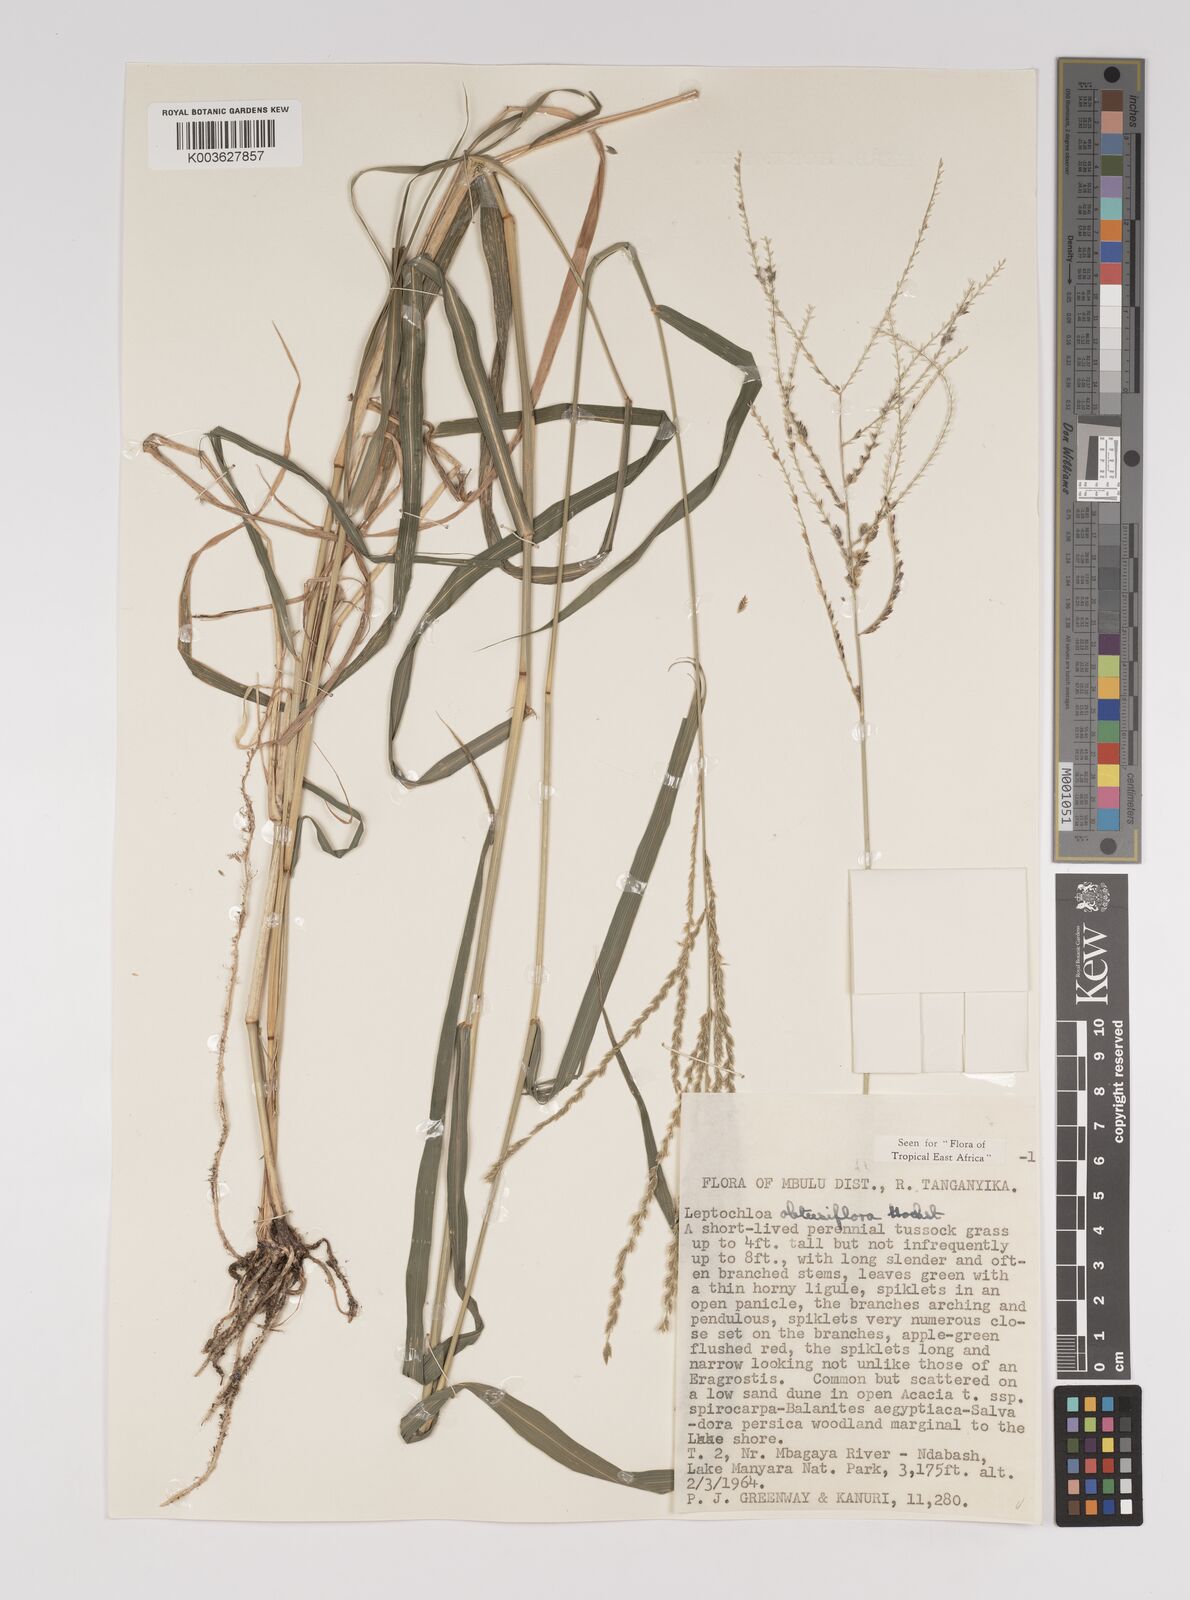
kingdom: Plantae
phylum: Tracheophyta
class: Liliopsida
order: Poales
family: Poaceae
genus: Disakisperma
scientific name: Disakisperma obtusiflorum
